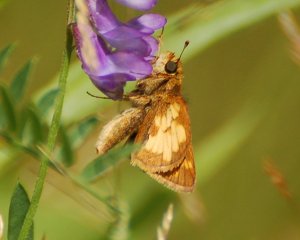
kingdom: Animalia
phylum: Arthropoda
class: Insecta
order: Lepidoptera
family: Hesperiidae
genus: Polites
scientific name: Polites coras
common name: Peck's Skipper
